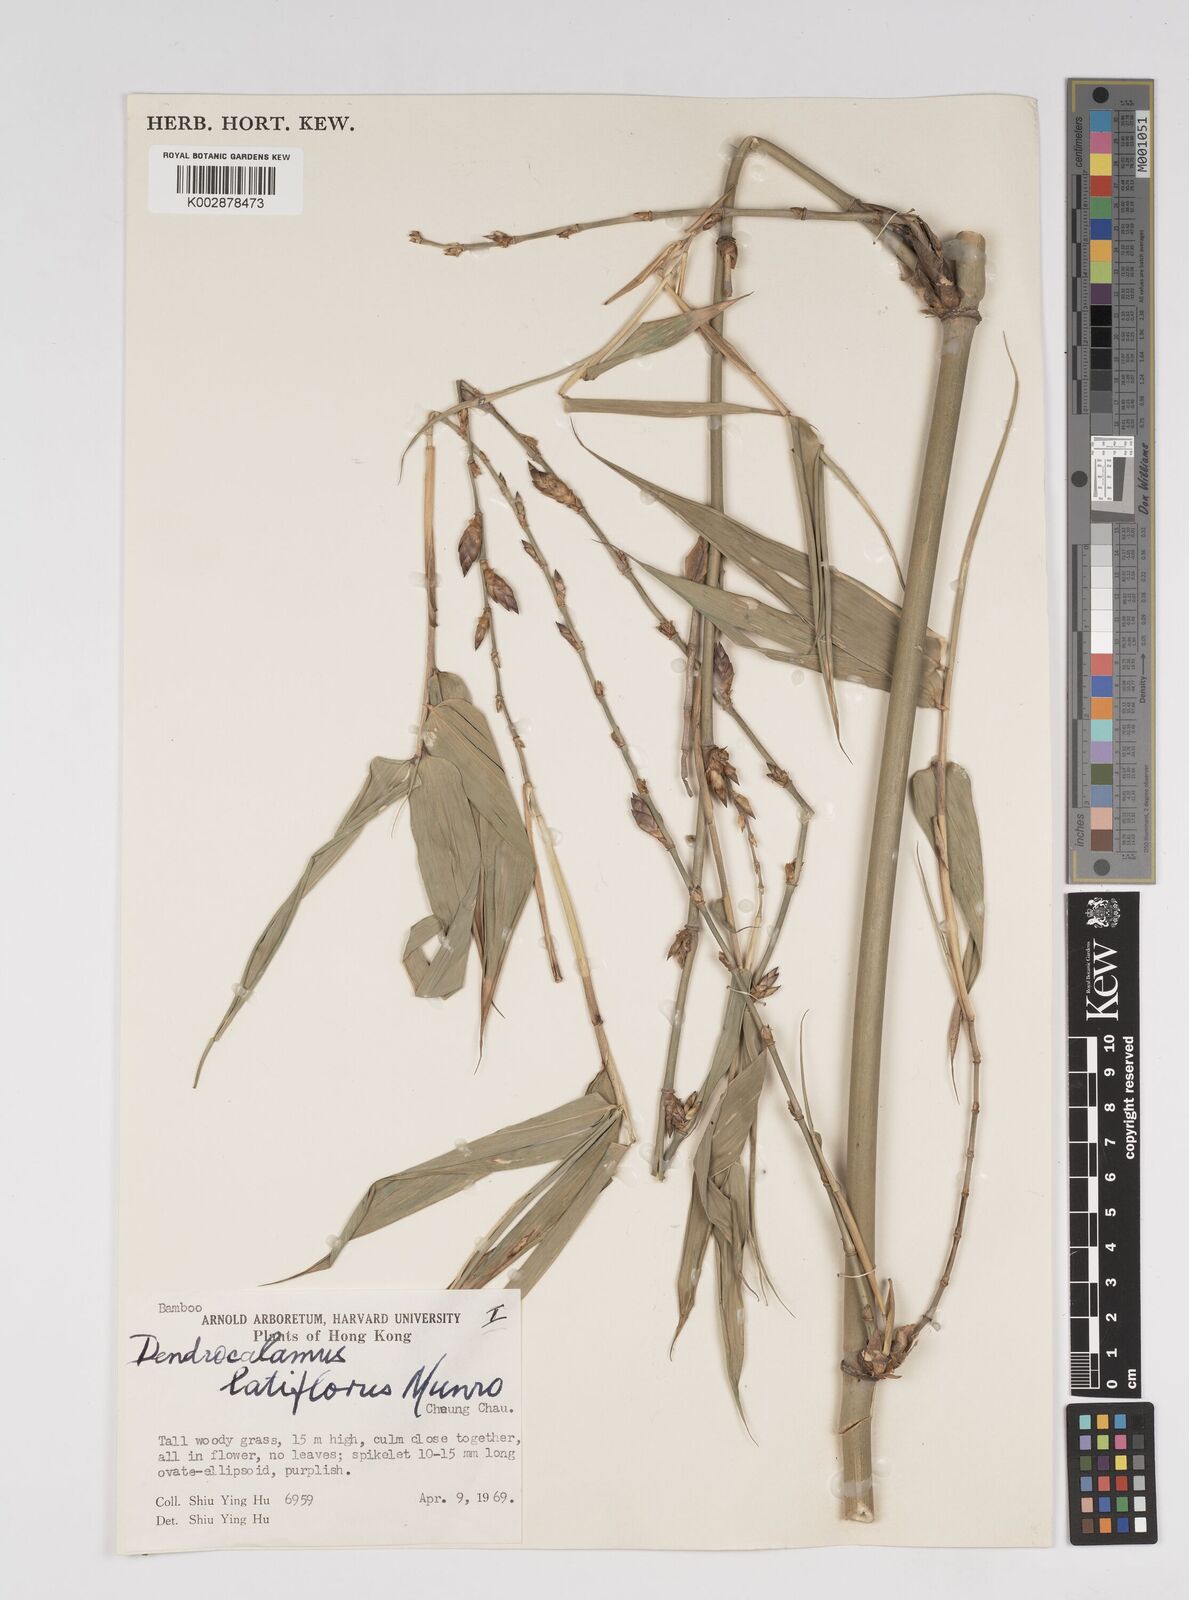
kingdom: Plantae
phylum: Tracheophyta
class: Liliopsida
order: Poales
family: Poaceae
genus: Dendrocalamus
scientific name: Dendrocalamus latiflorus
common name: Giant bamboo
